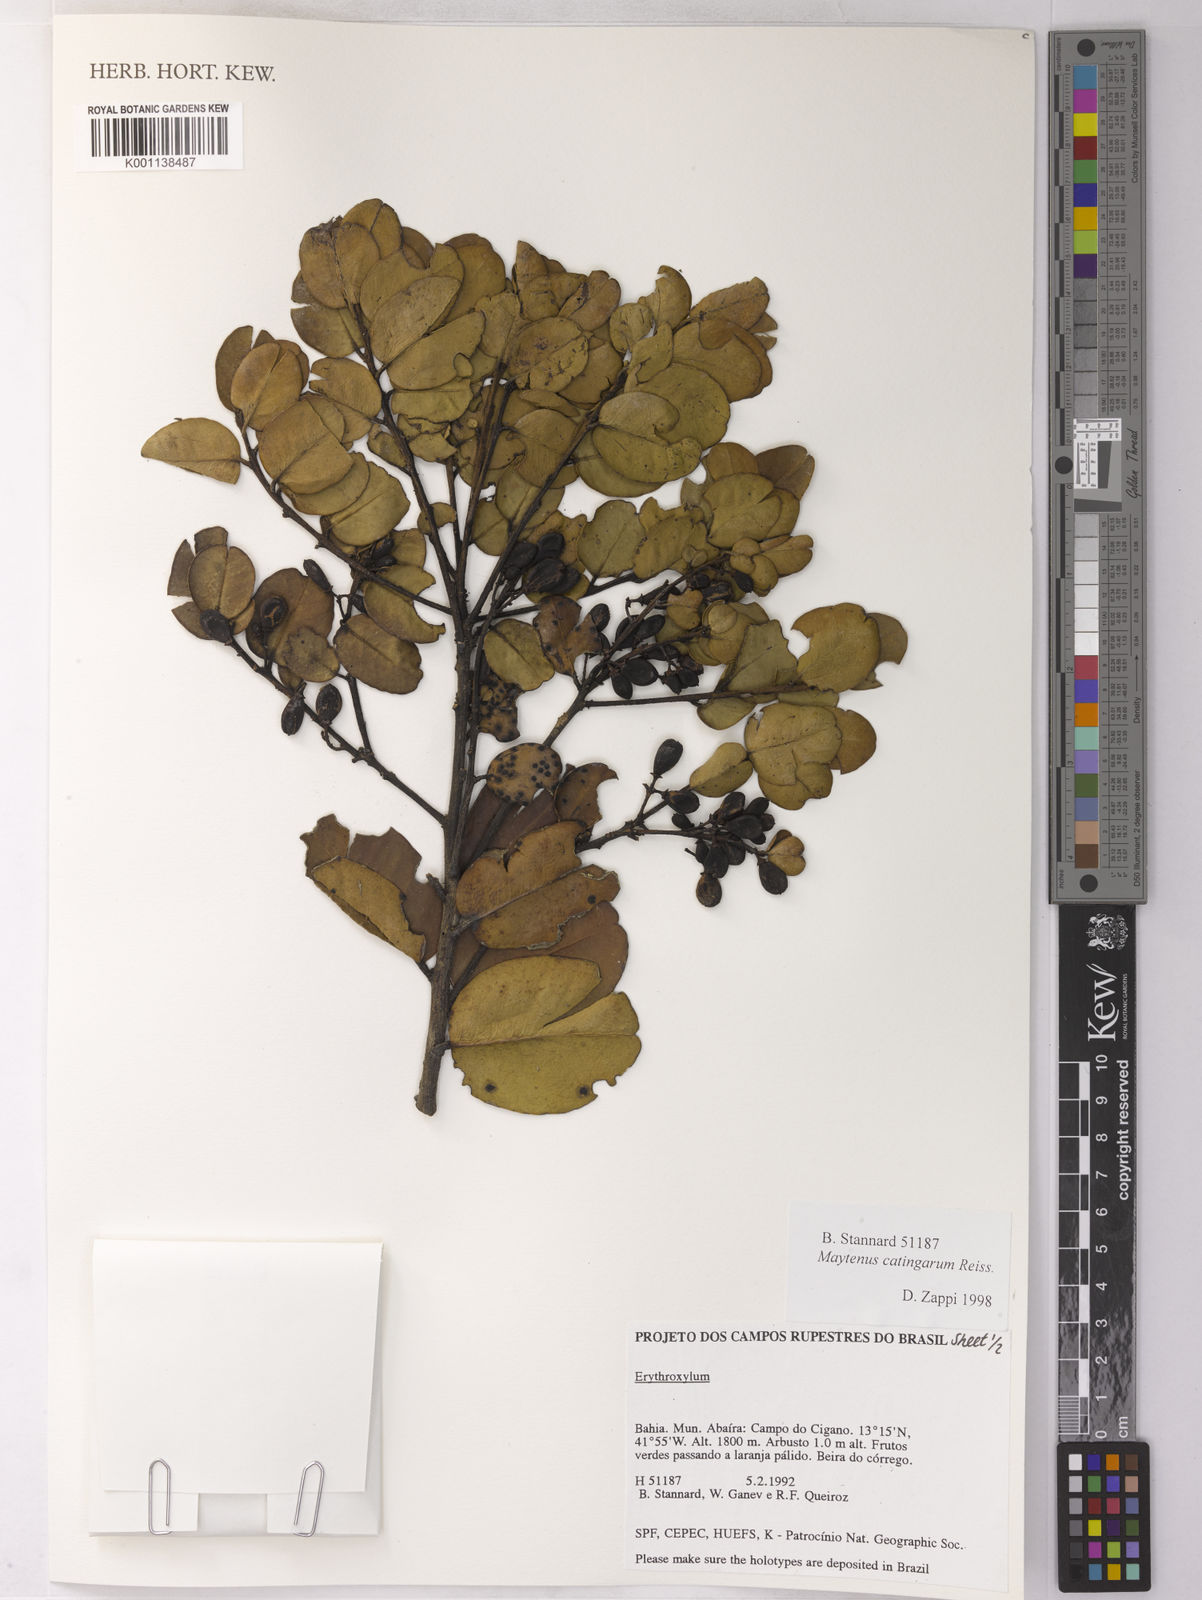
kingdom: Plantae
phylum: Tracheophyta
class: Magnoliopsida
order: Celastrales
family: Celastraceae
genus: Monteverdia
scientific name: Monteverdia catingarum
